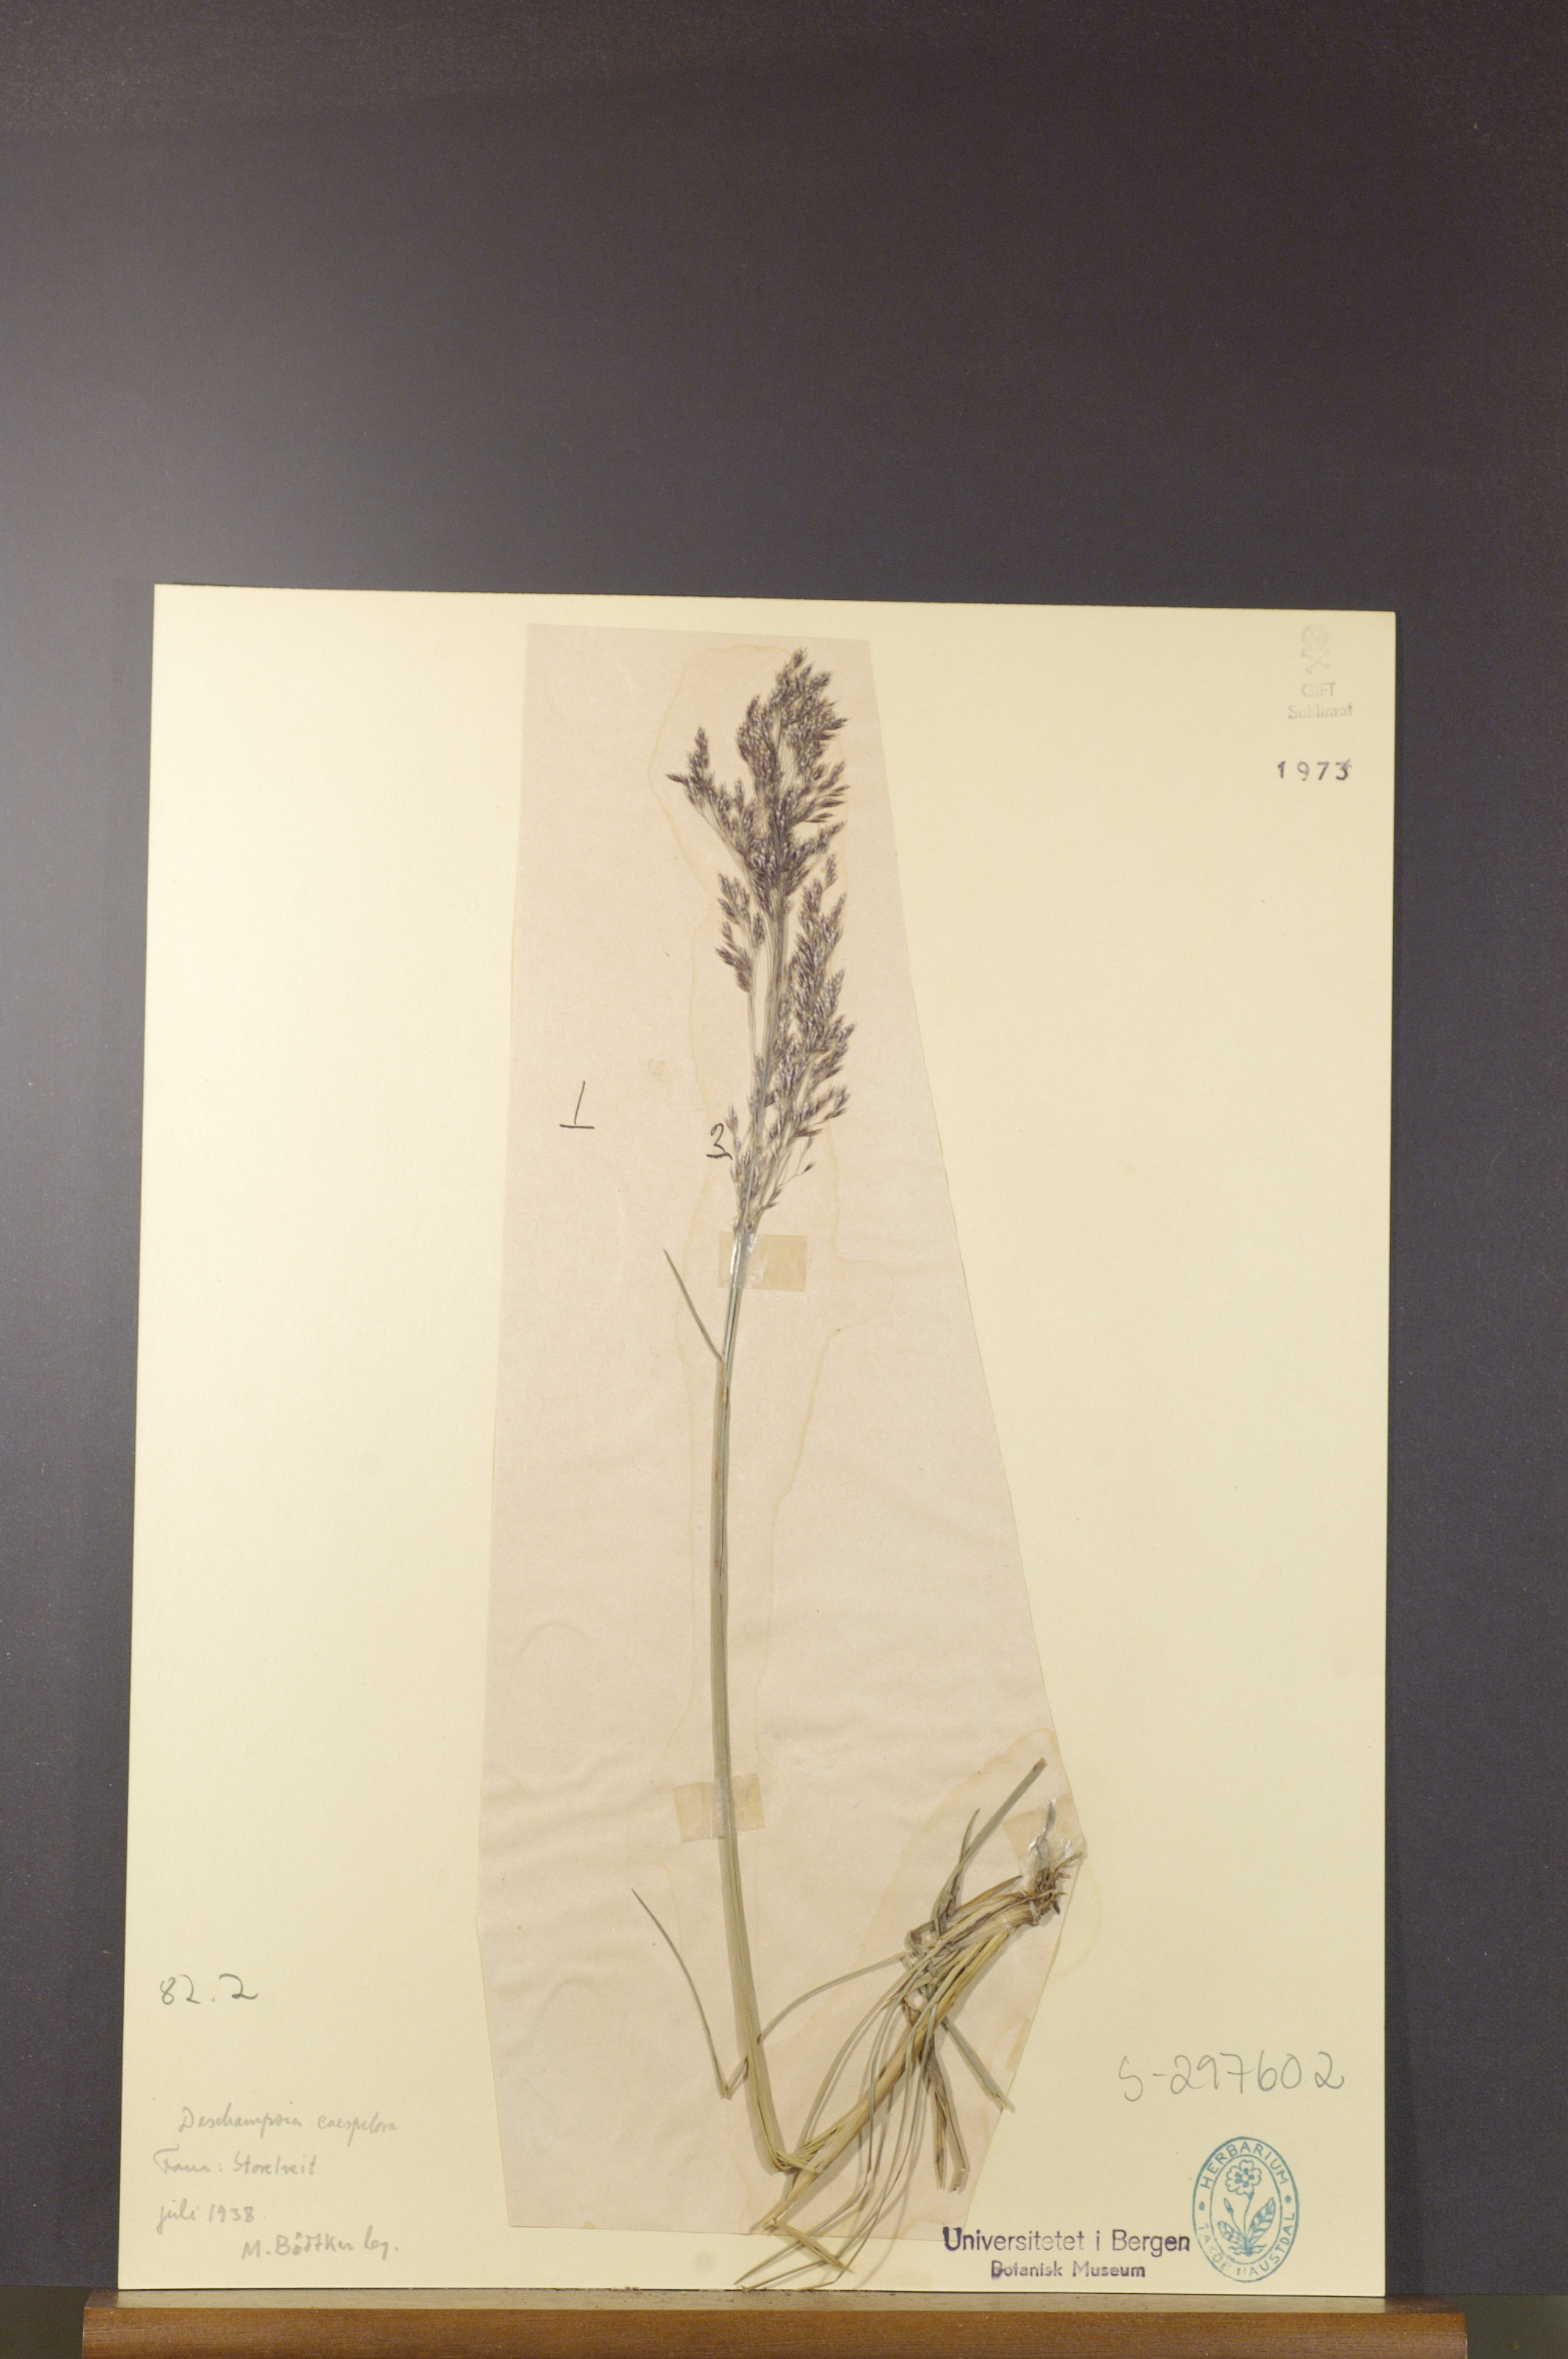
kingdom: Plantae
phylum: Tracheophyta
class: Liliopsida
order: Poales
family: Poaceae
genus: Deschampsia
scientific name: Deschampsia cespitosa
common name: Tufted hair-grass
